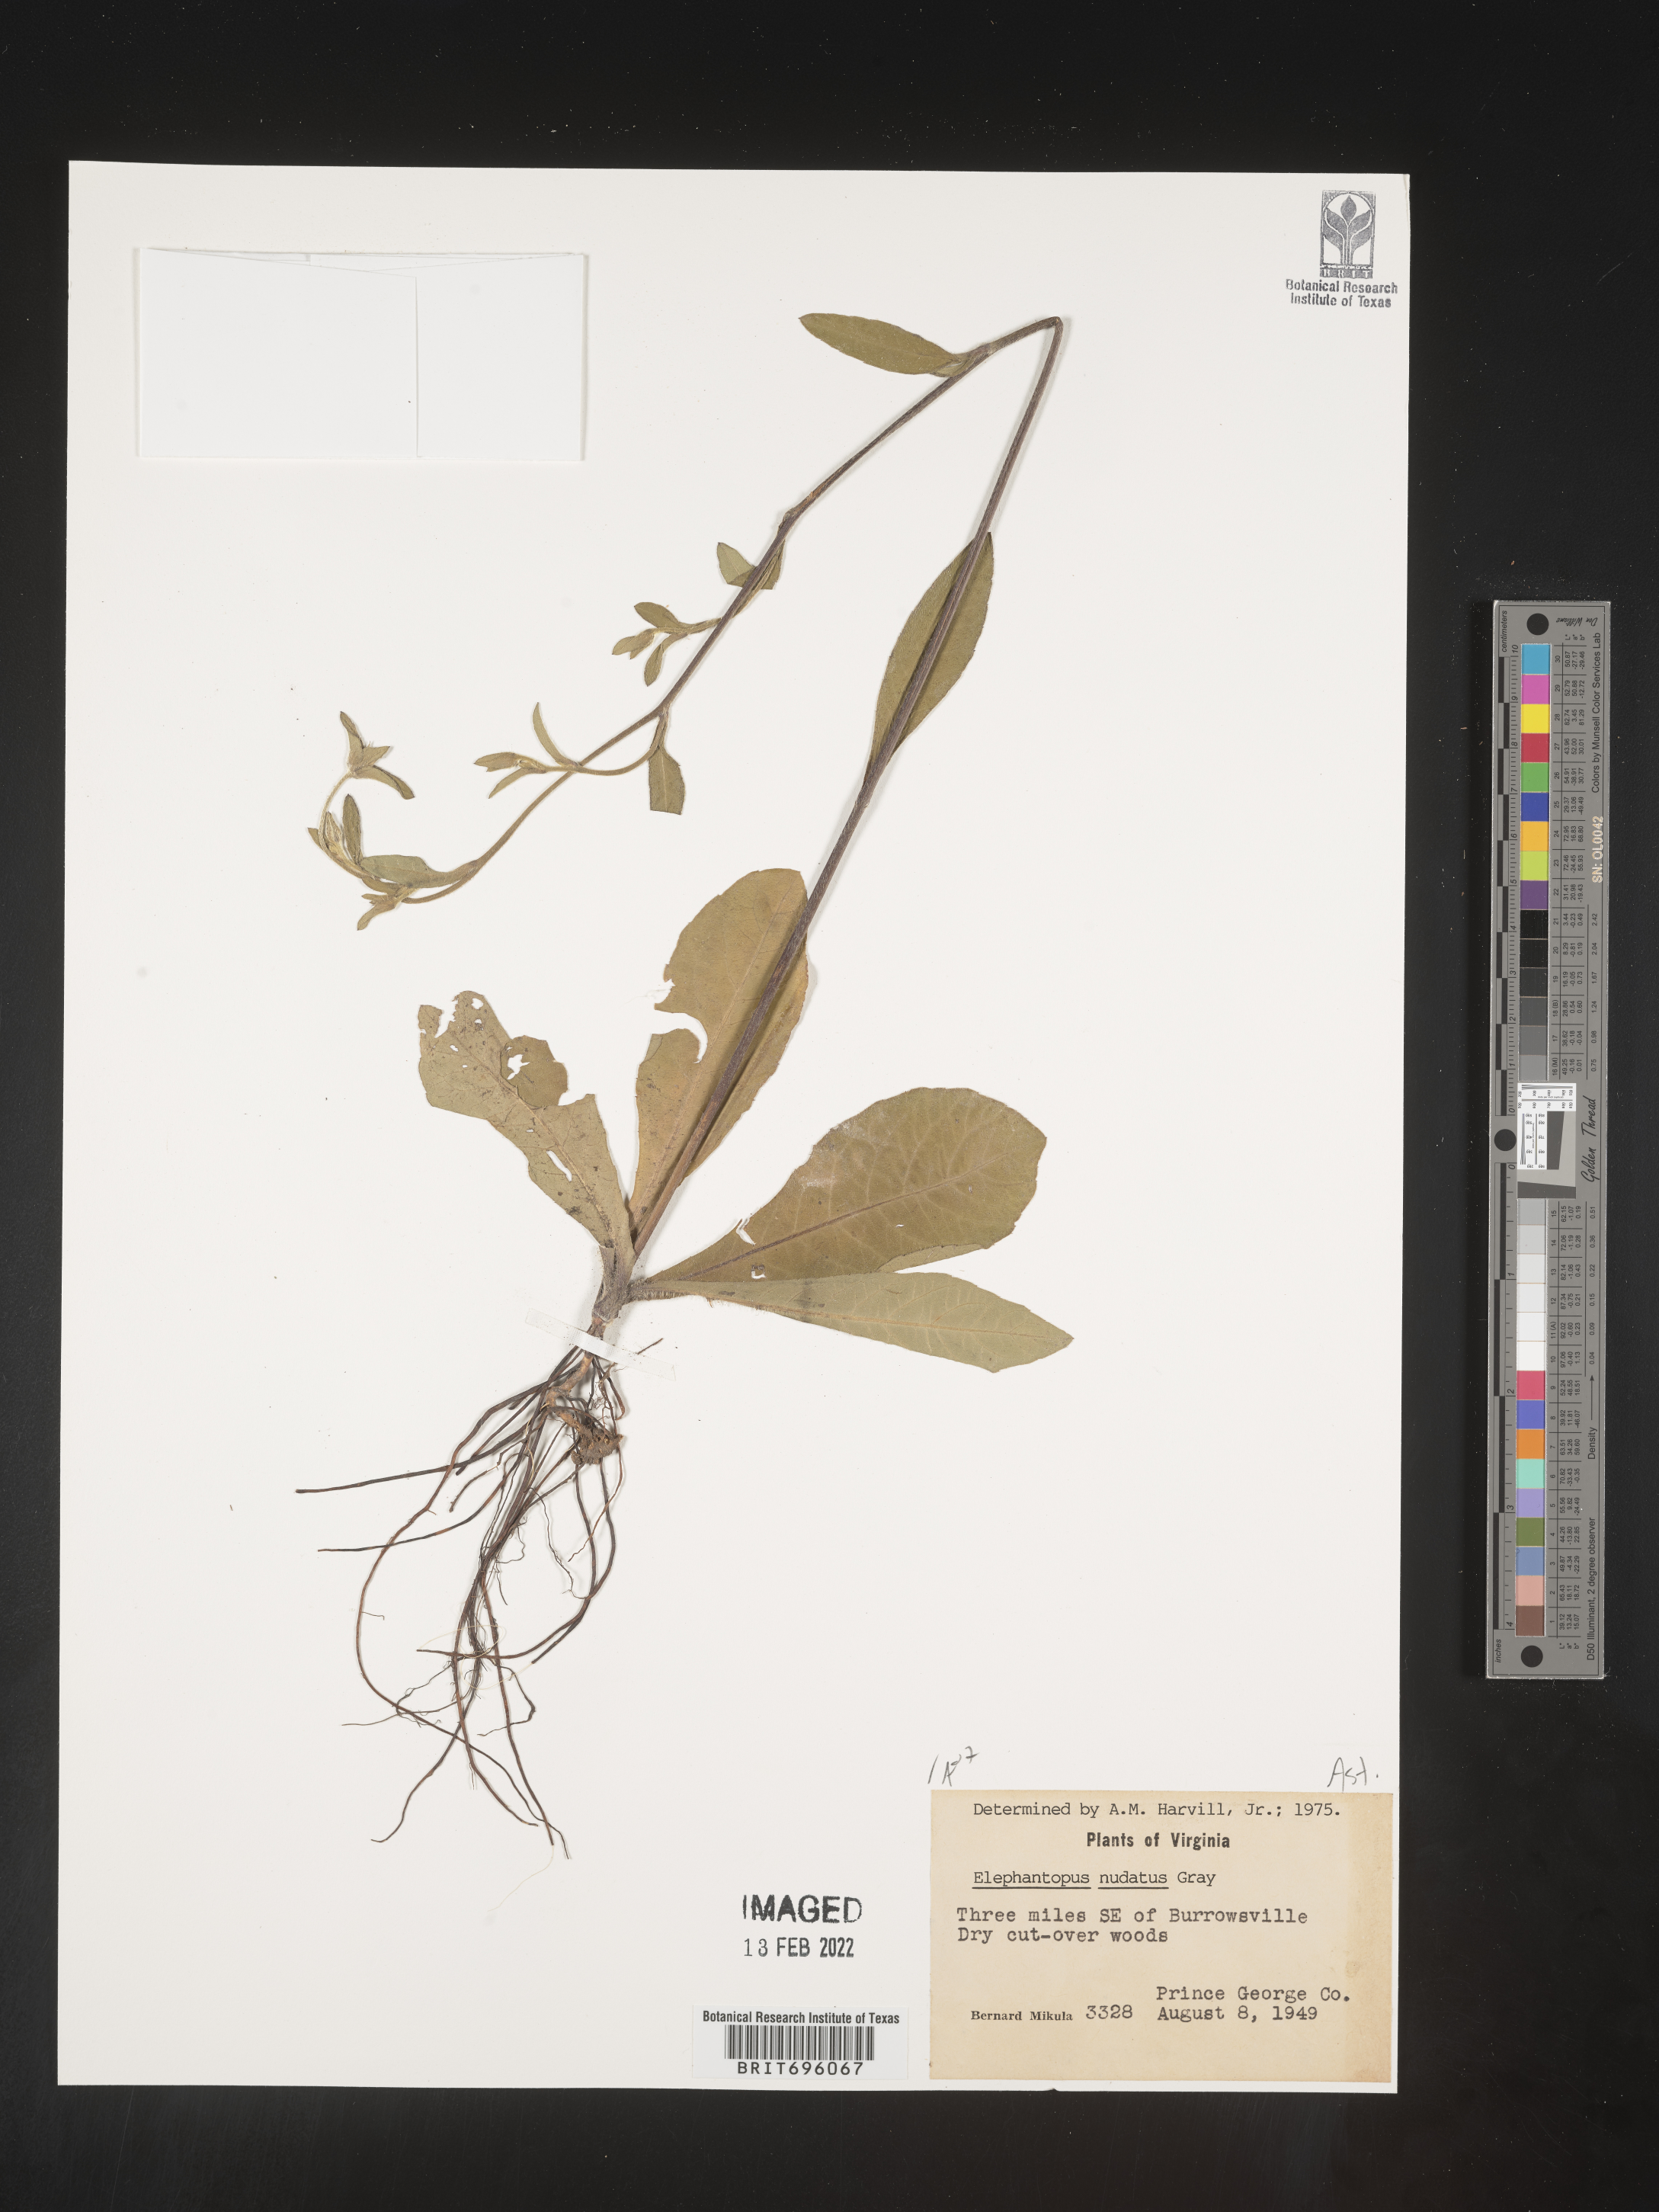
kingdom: Plantae
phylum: Tracheophyta
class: Magnoliopsida
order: Asterales
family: Asteraceae
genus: Elephantopus
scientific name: Elephantopus nudatus
